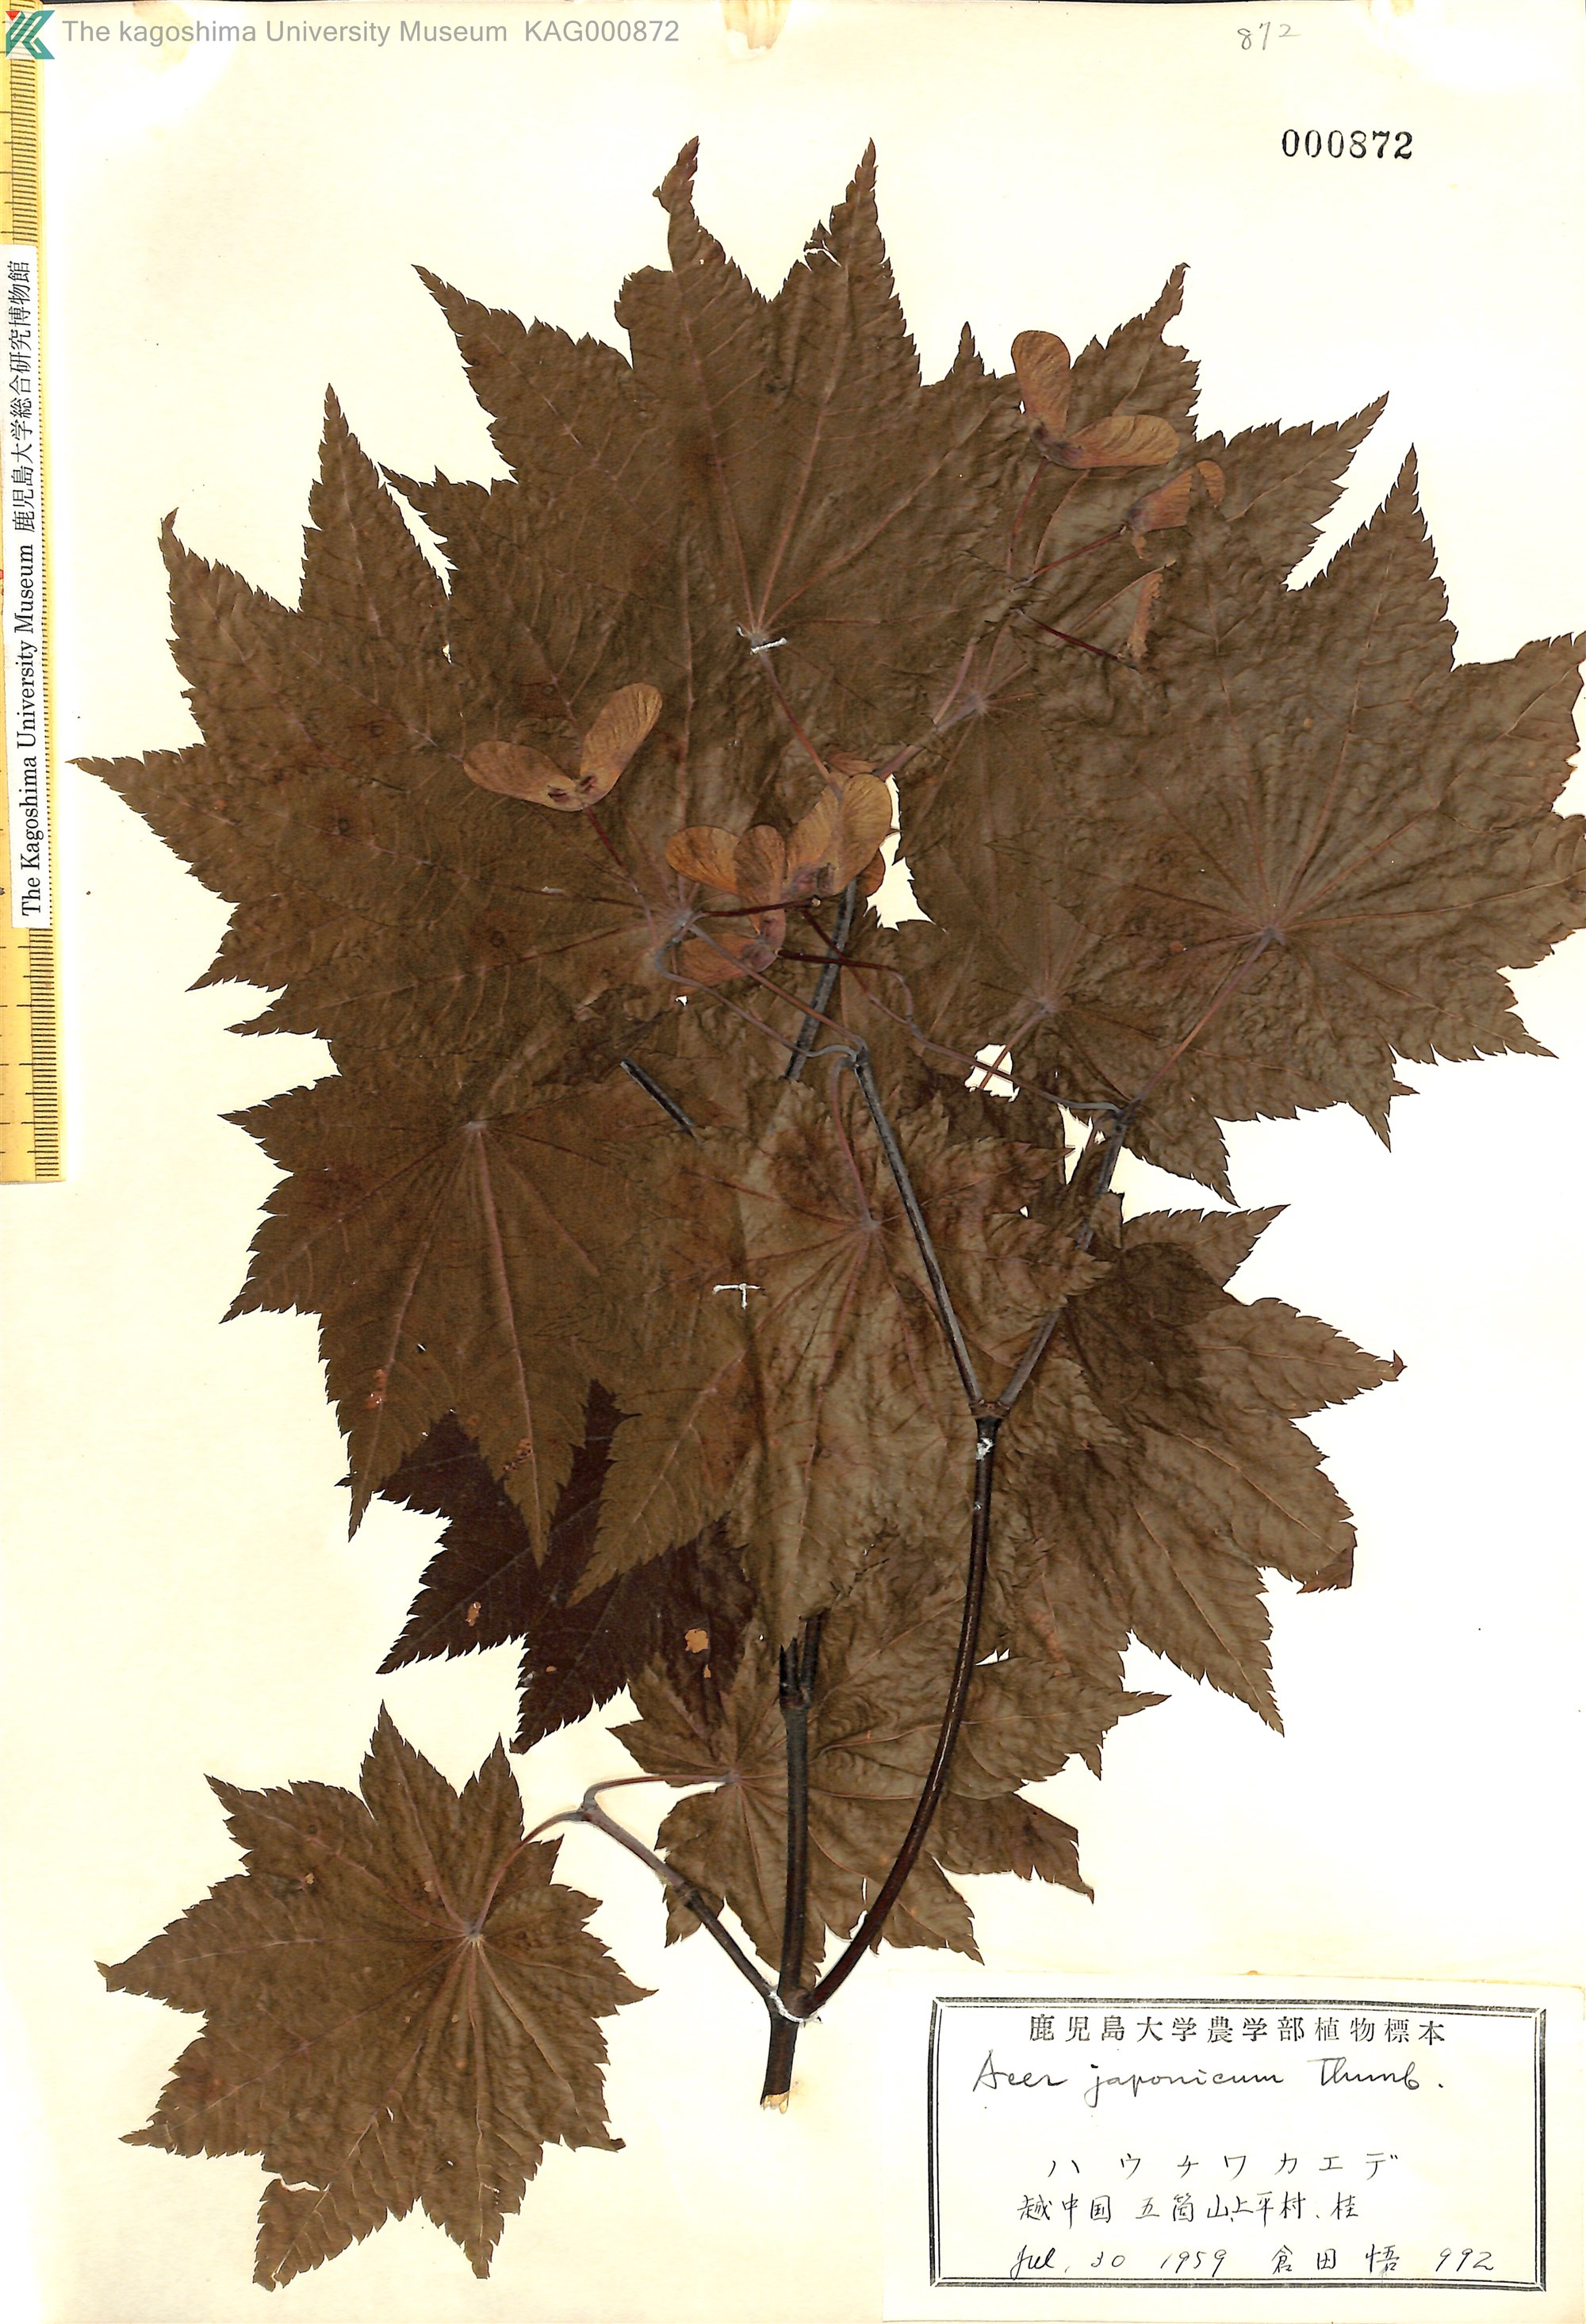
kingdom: Plantae
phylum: Tracheophyta
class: Magnoliopsida
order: Sapindales
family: Sapindaceae
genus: Acer
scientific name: Acer japonicum
